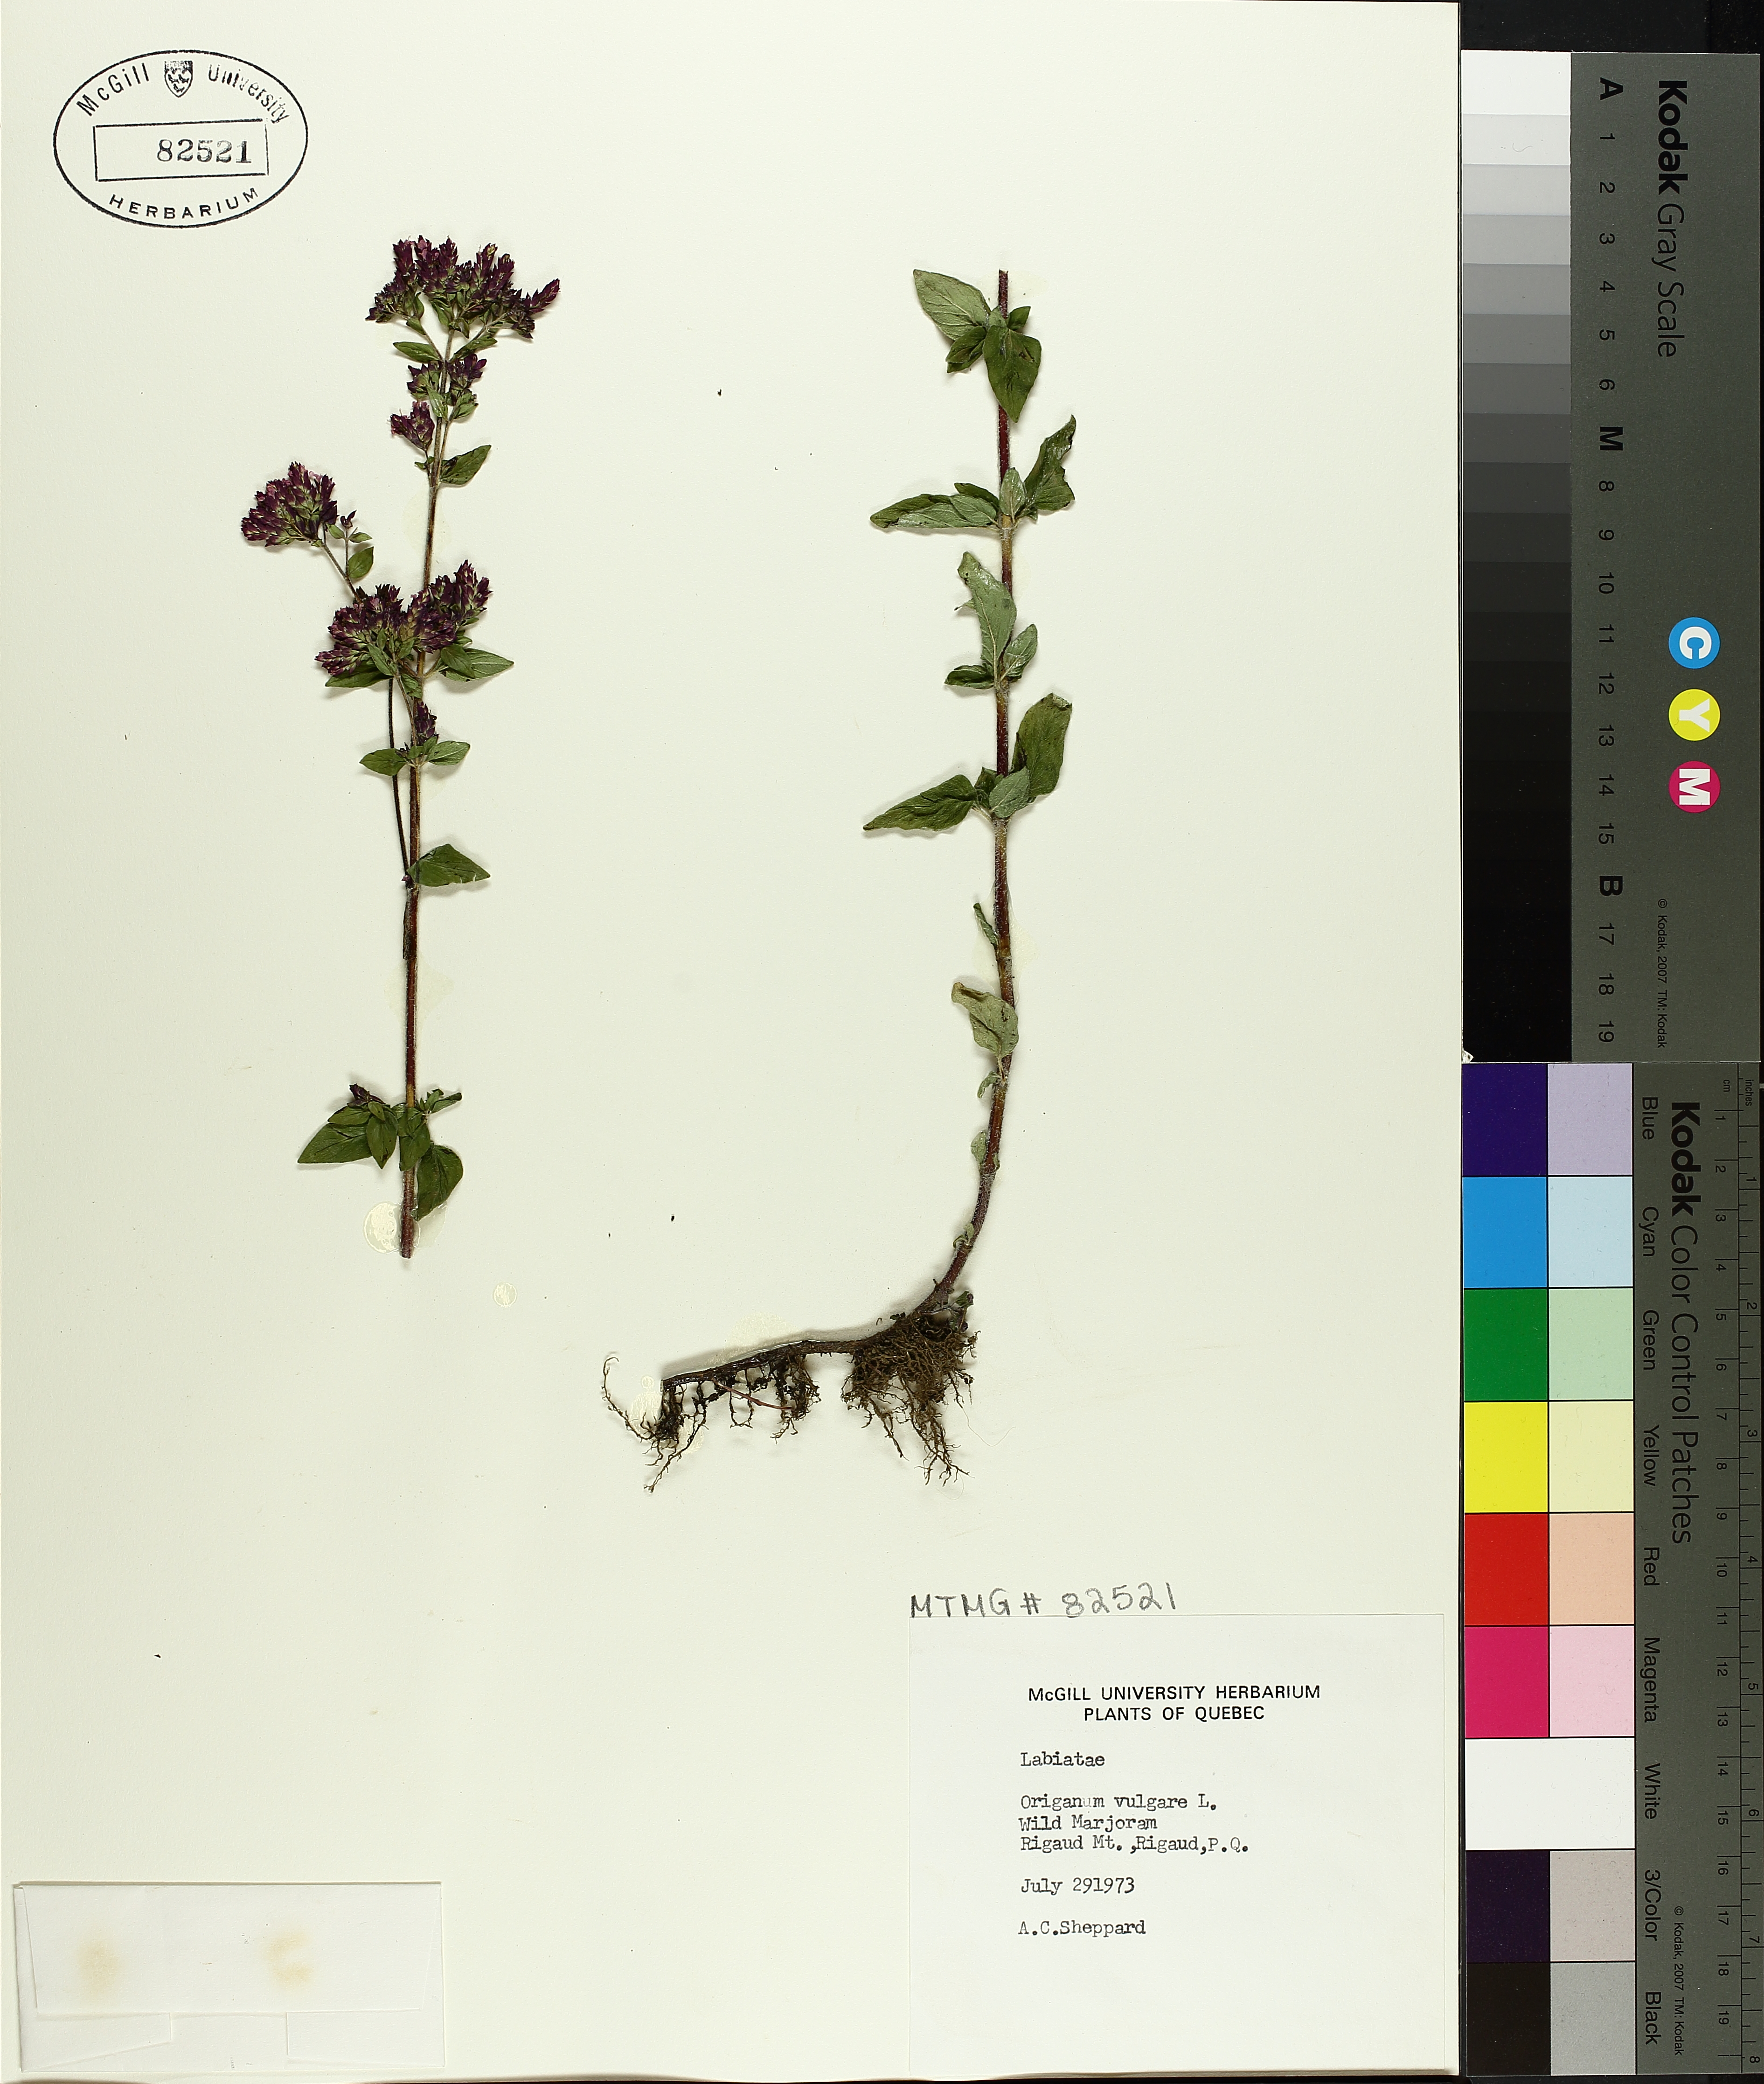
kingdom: Plantae
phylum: Tracheophyta
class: Magnoliopsida
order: Lamiales
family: Lamiaceae
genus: Origanum
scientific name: Origanum vulgare
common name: Wild marjoram
